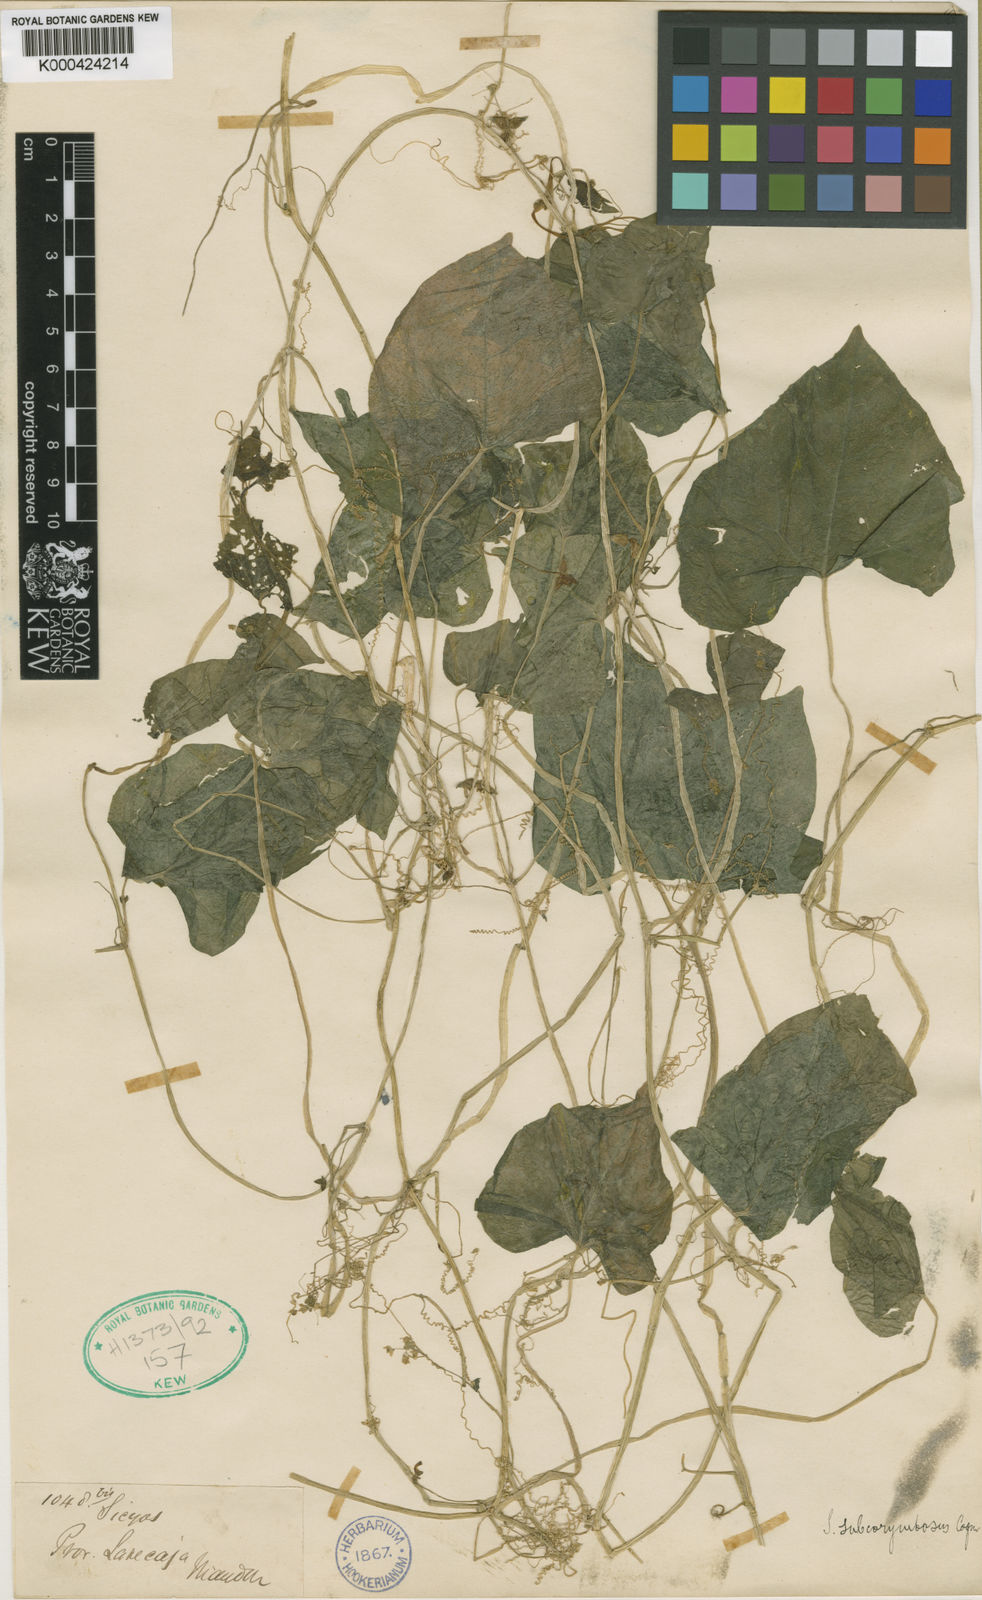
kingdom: Plantae
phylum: Tracheophyta
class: Magnoliopsida
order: Cucurbitales
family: Cucurbitaceae
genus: Sicyos
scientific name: Sicyos montanus
